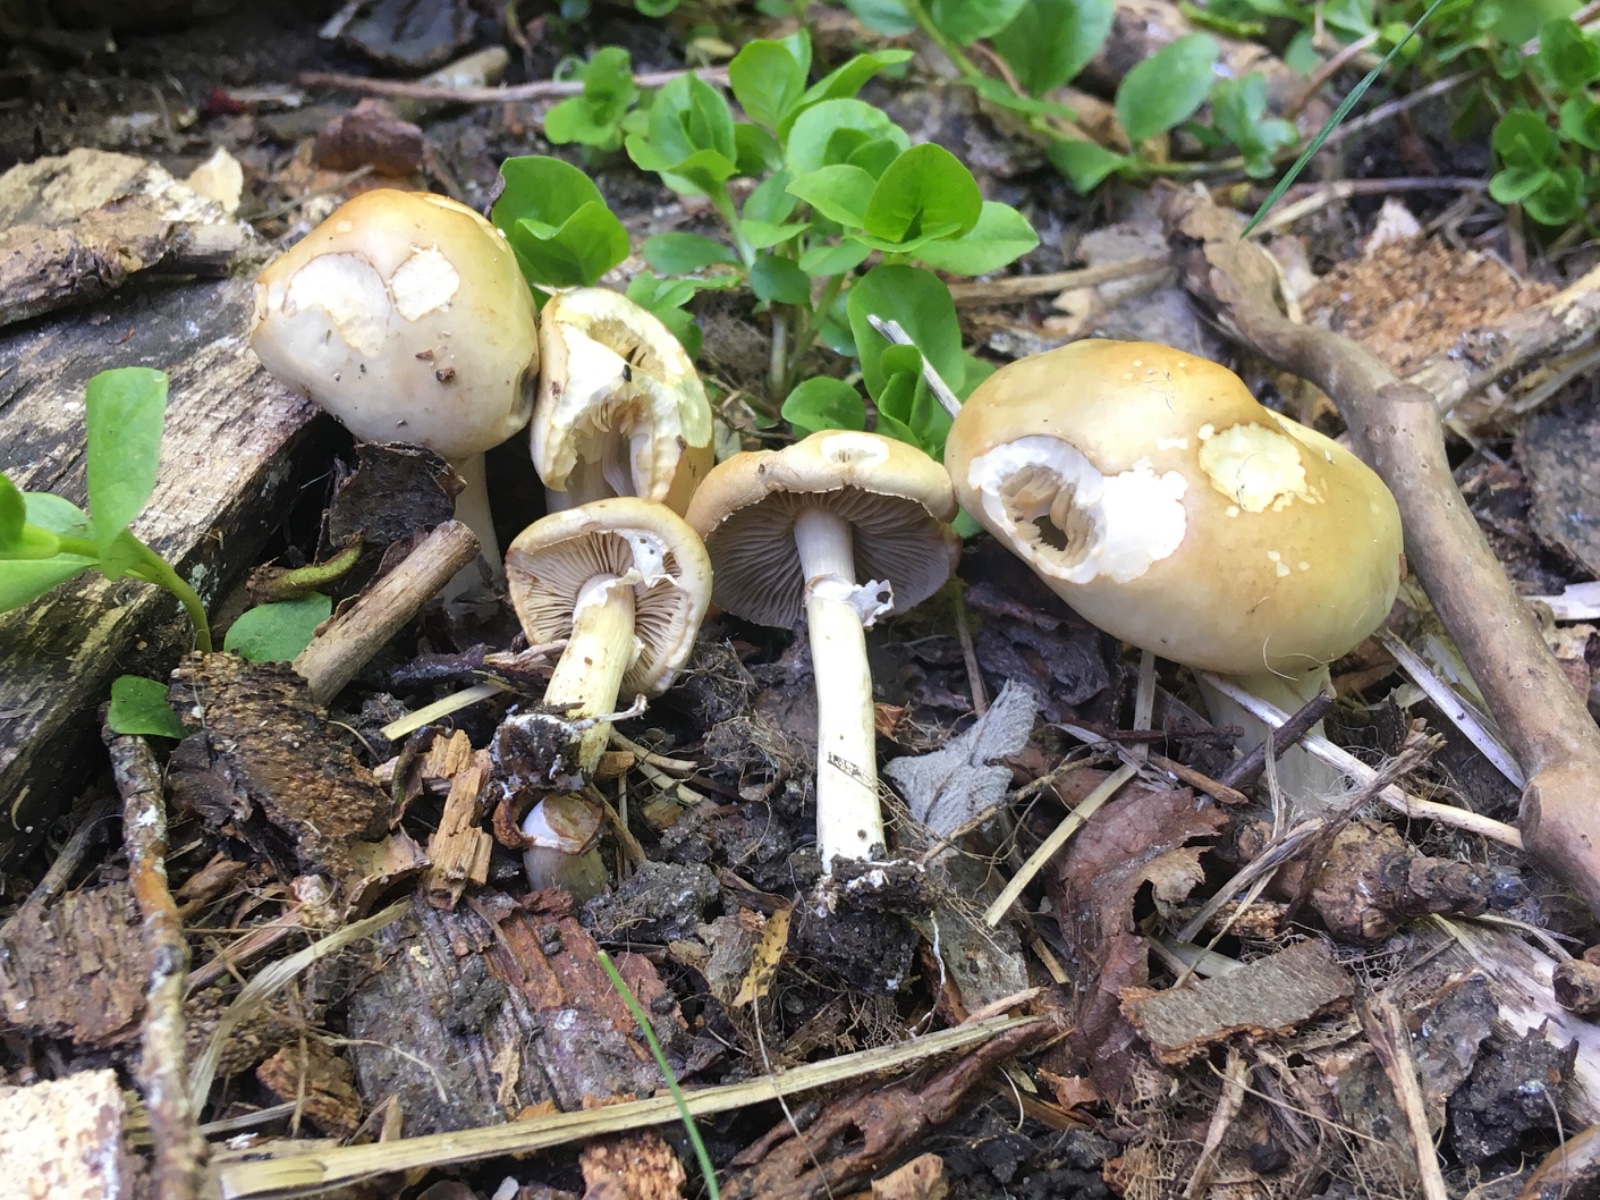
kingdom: Fungi
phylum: Basidiomycota
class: Agaricomycetes
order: Agaricales
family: Strophariaceae
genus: Agrocybe
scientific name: Agrocybe praecox
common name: tidlig agerhat
